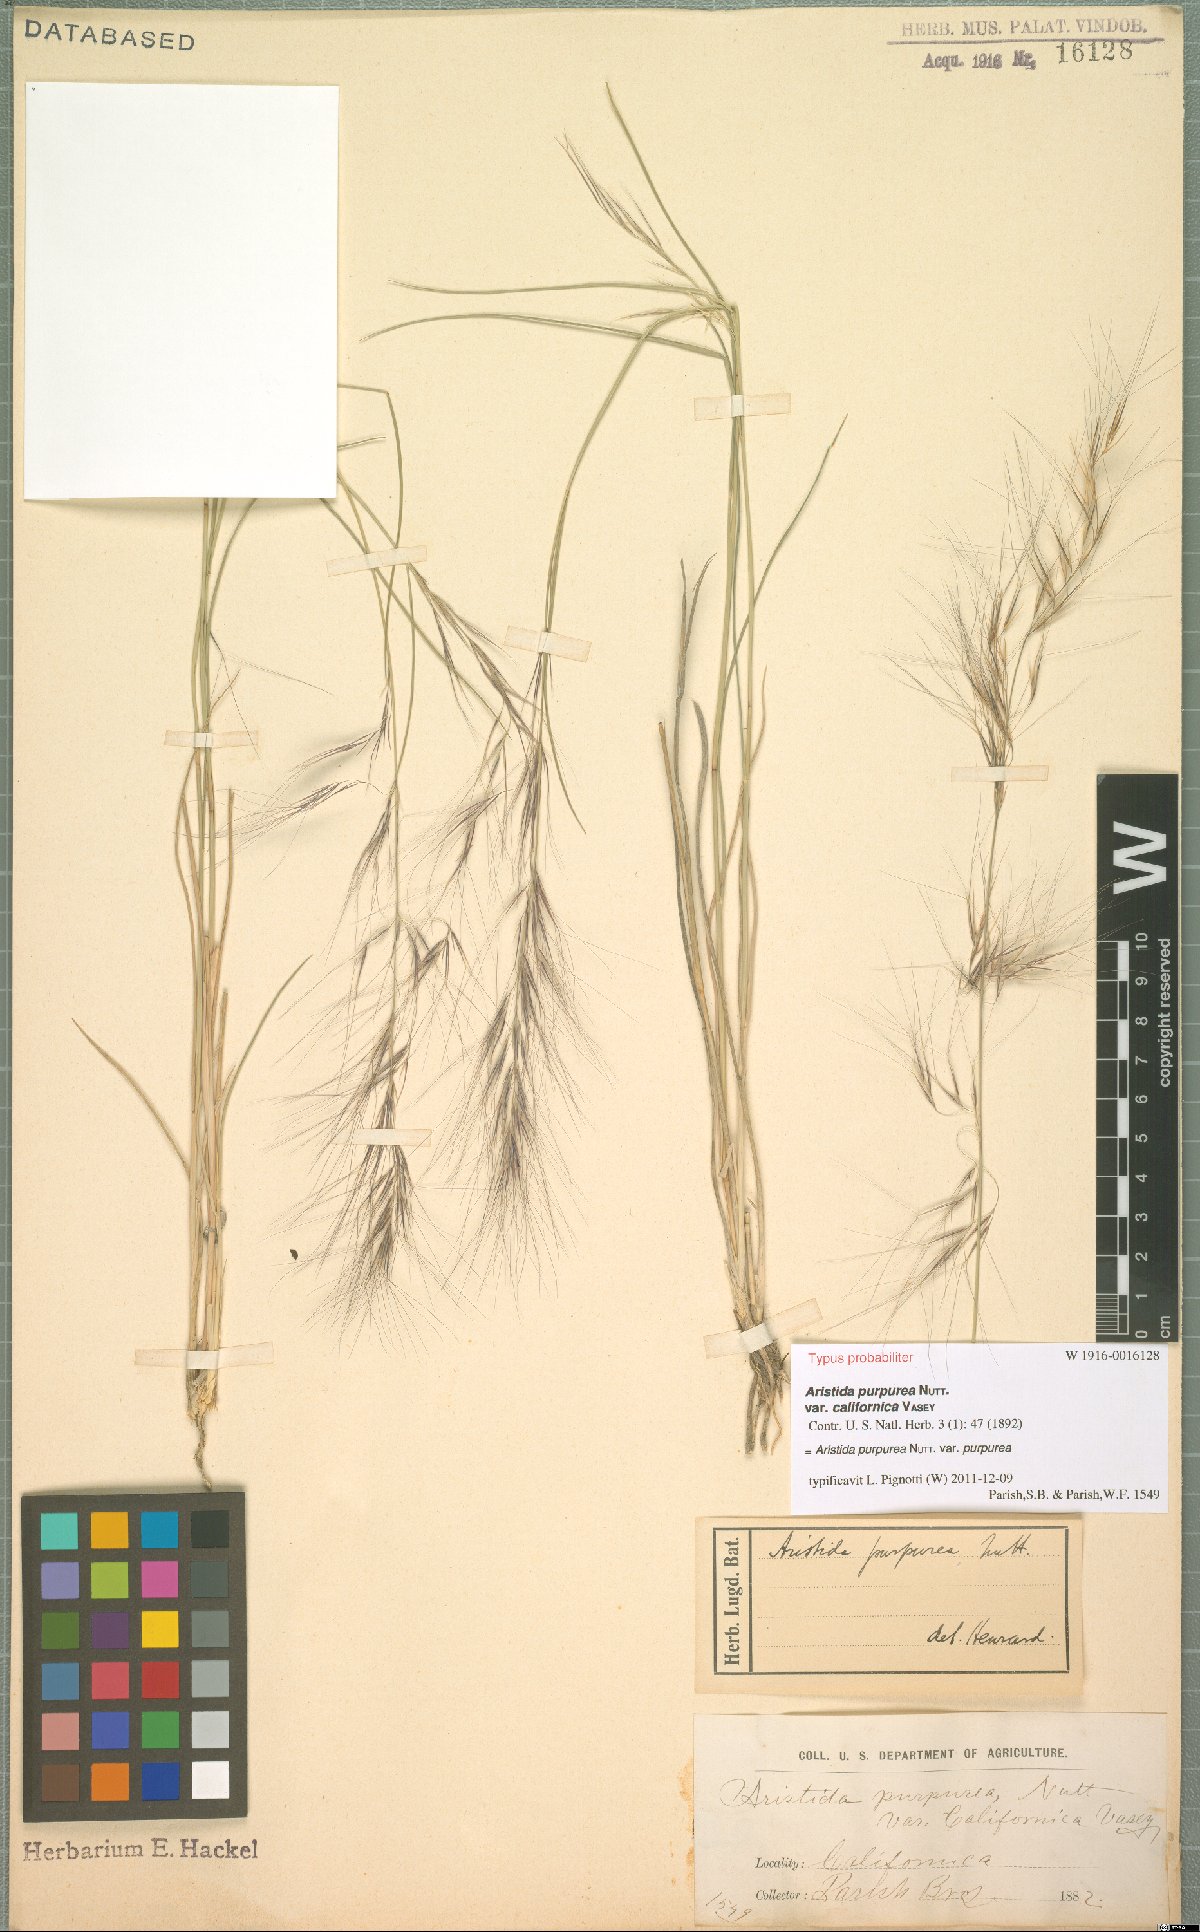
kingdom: Plantae
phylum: Tracheophyta
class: Liliopsida
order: Poales
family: Poaceae
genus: Aristida
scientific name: Aristida purpurea
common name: Purple threeawn
